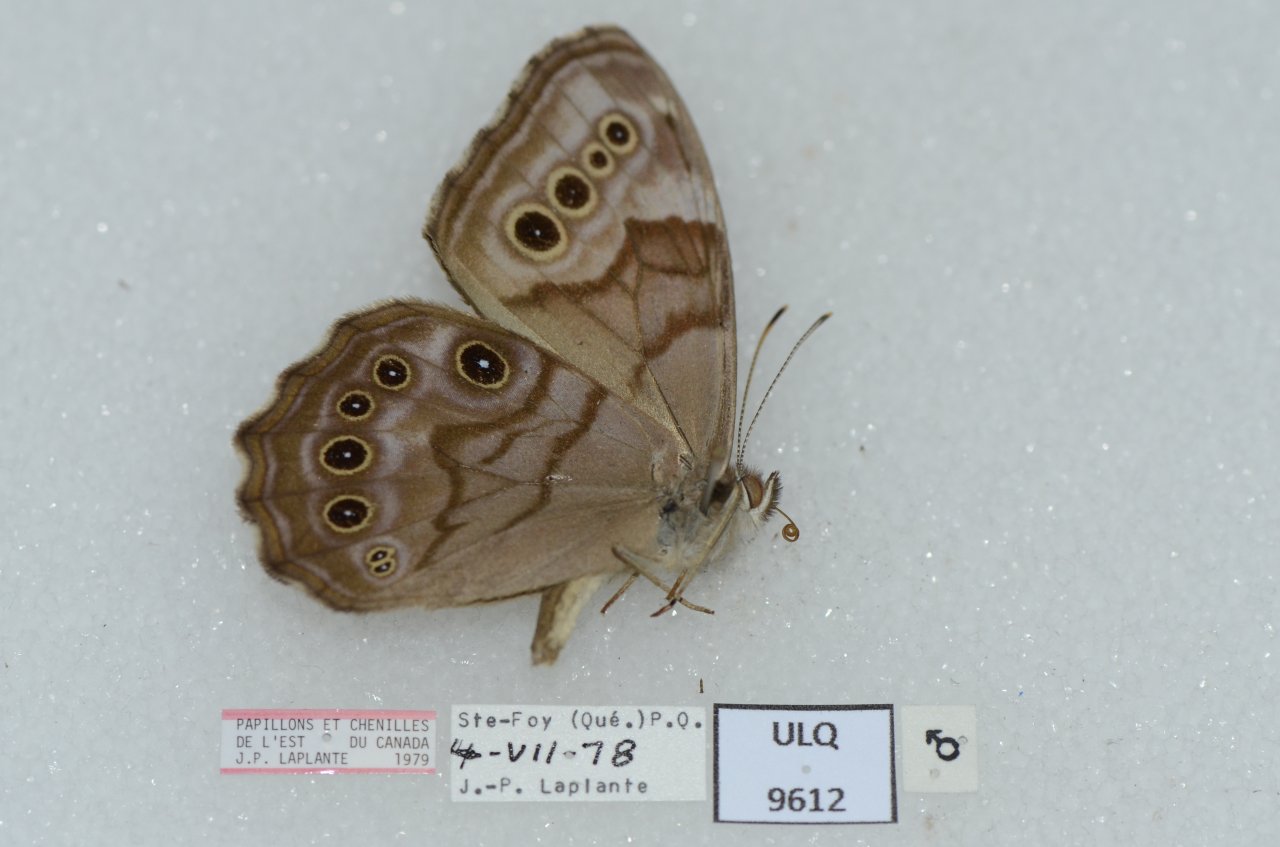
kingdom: Animalia
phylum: Arthropoda
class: Insecta
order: Lepidoptera
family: Nymphalidae
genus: Lethe
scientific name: Lethe anthedon
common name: Northern Pearly-Eye
